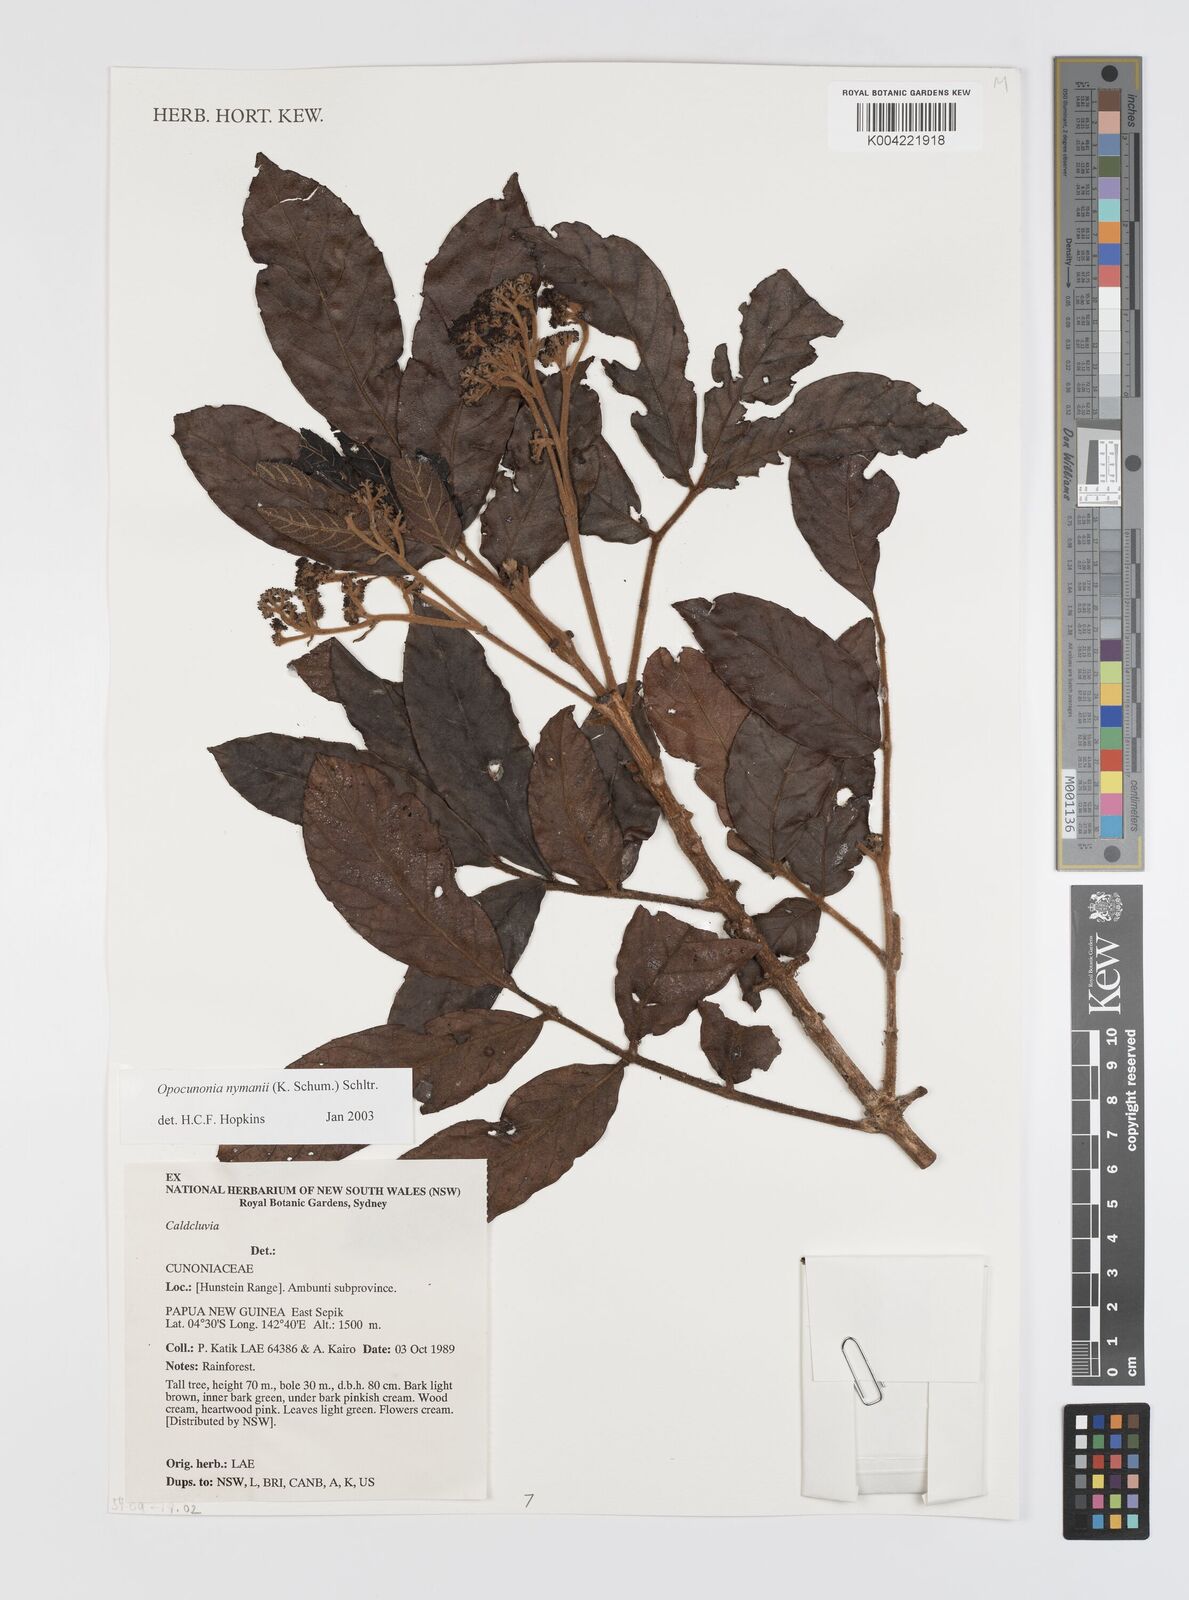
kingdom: Plantae
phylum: Tracheophyta
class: Magnoliopsida
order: Oxalidales
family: Cunoniaceae
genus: Opocunonia
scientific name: Opocunonia nymanii
